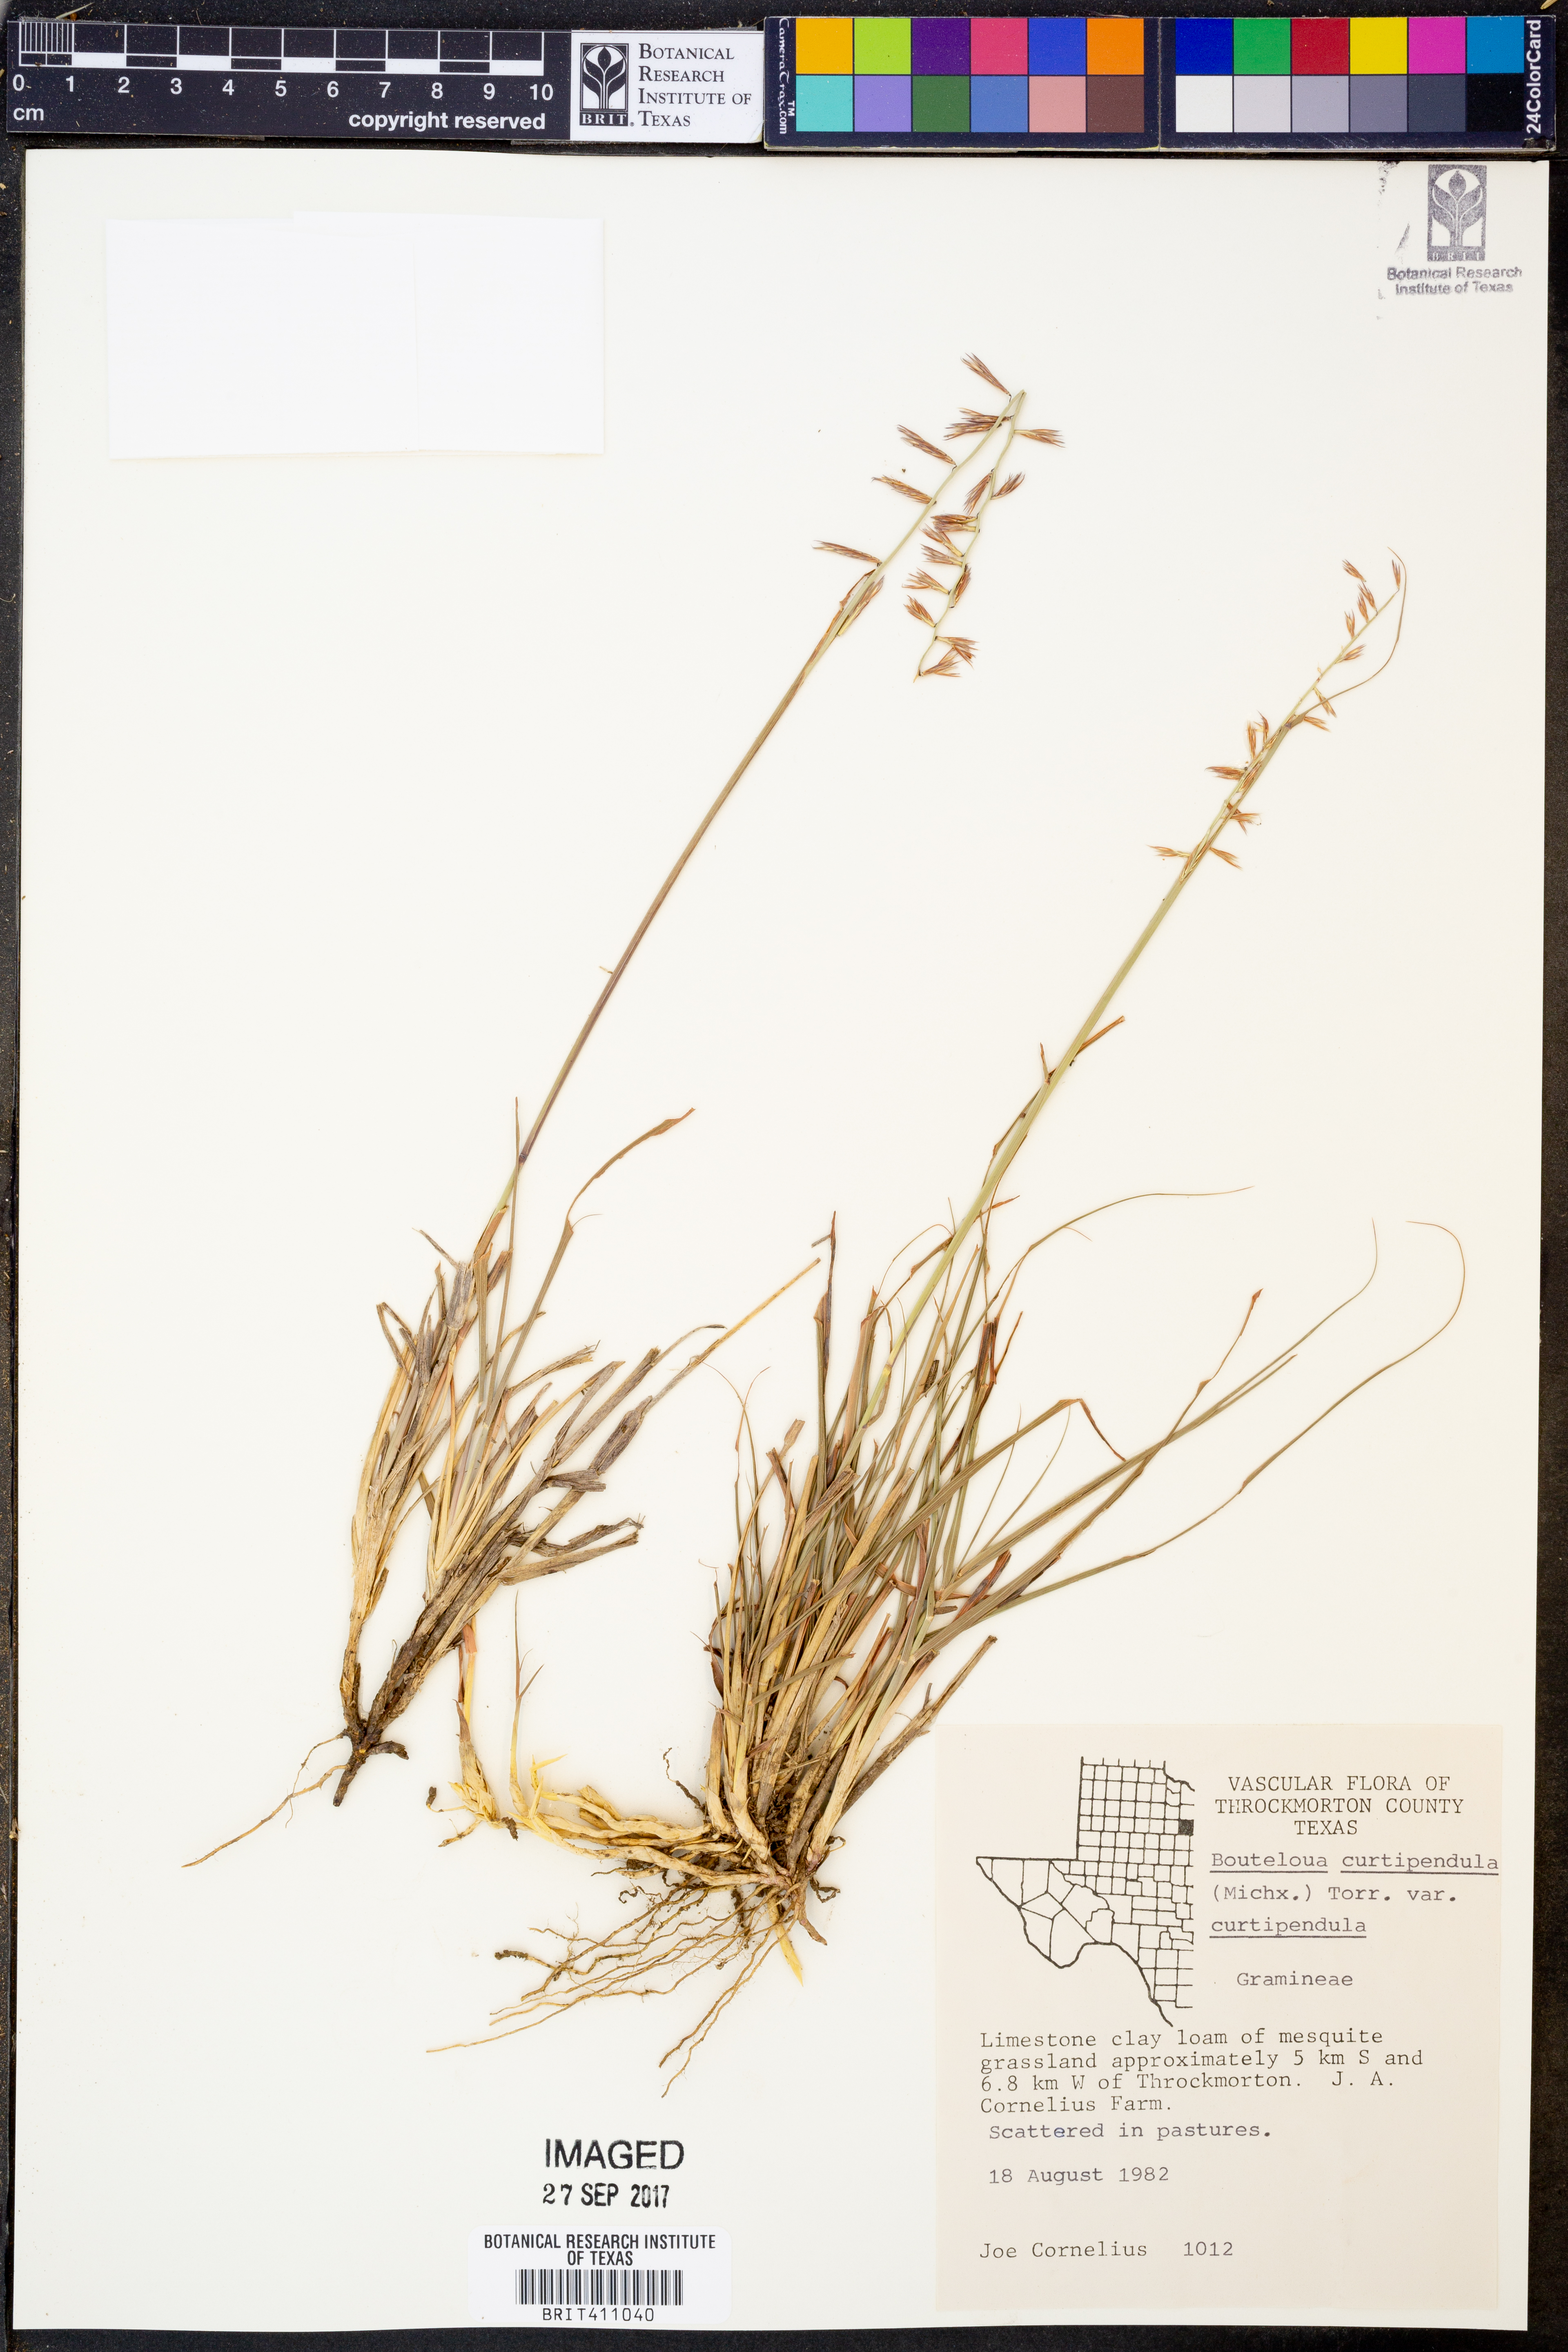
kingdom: Plantae
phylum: Tracheophyta
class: Liliopsida
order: Poales
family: Poaceae
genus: Bouteloua
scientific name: Bouteloua curtipendula
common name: Side-oats grama
